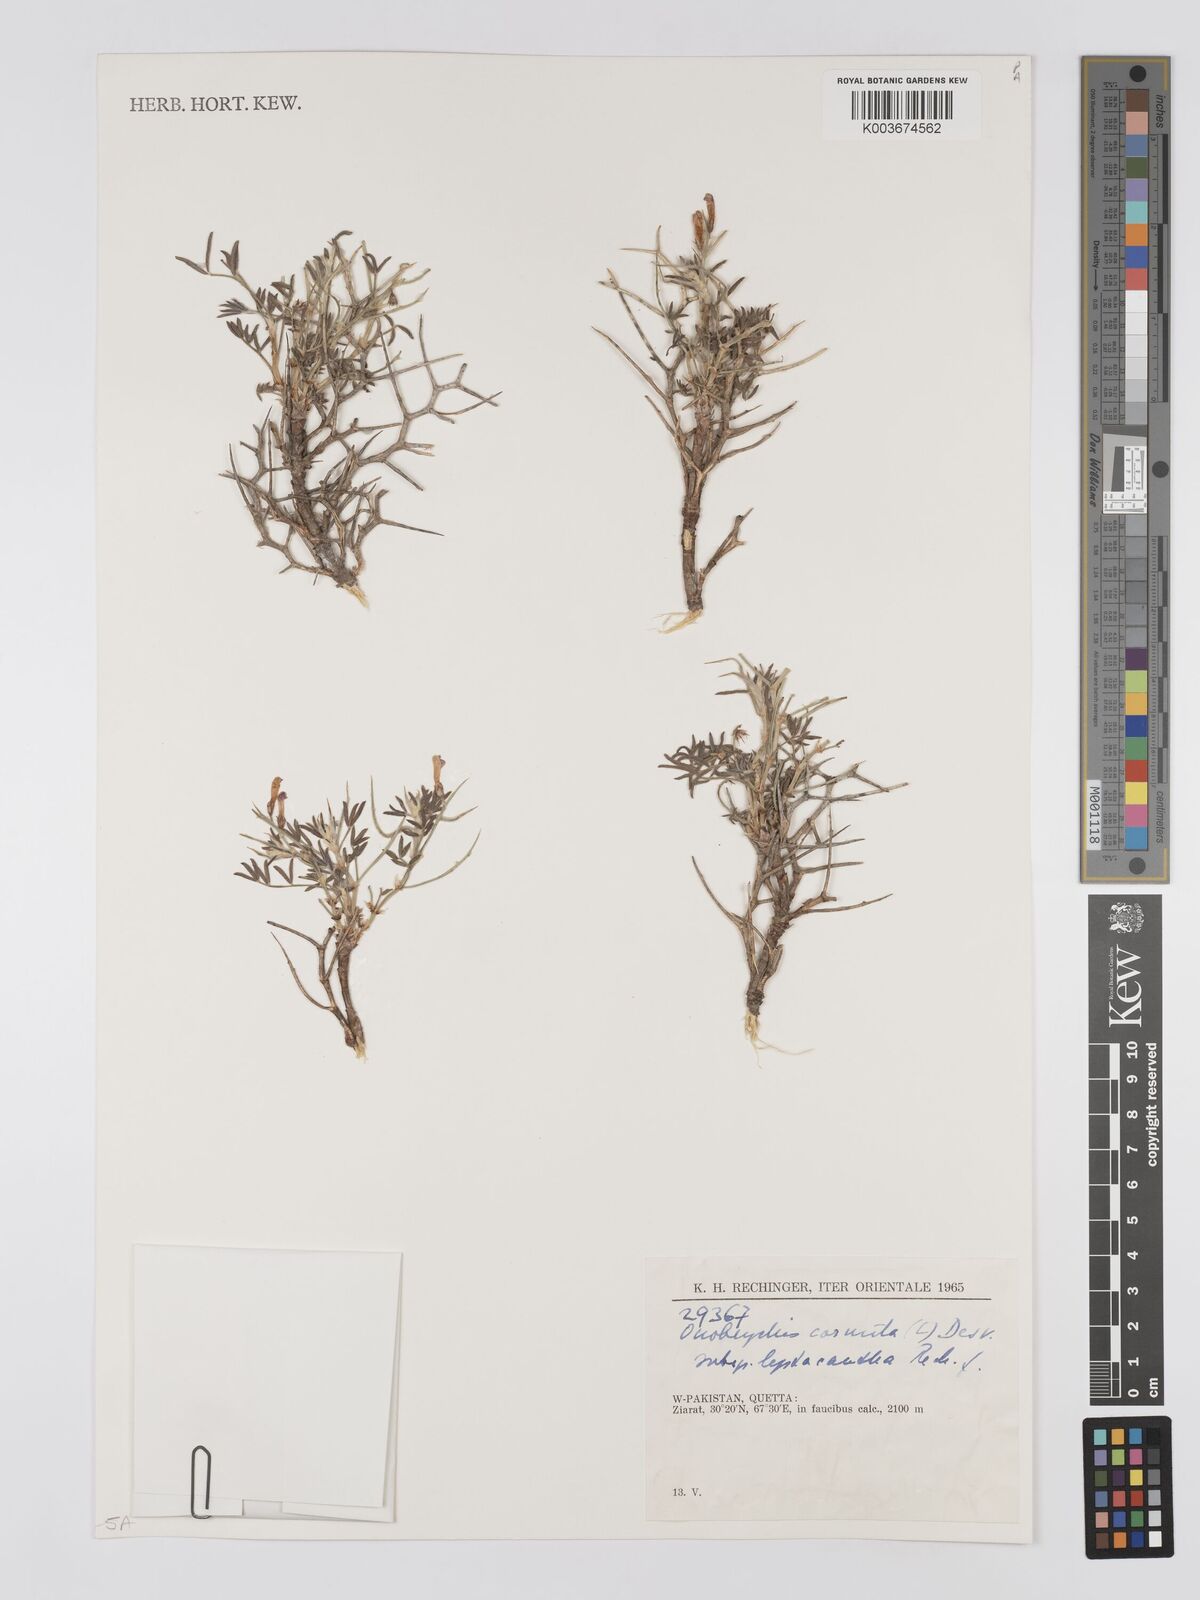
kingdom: Plantae
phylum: Tracheophyta
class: Magnoliopsida
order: Fabales
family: Fabaceae
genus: Onobrychis
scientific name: Onobrychis
